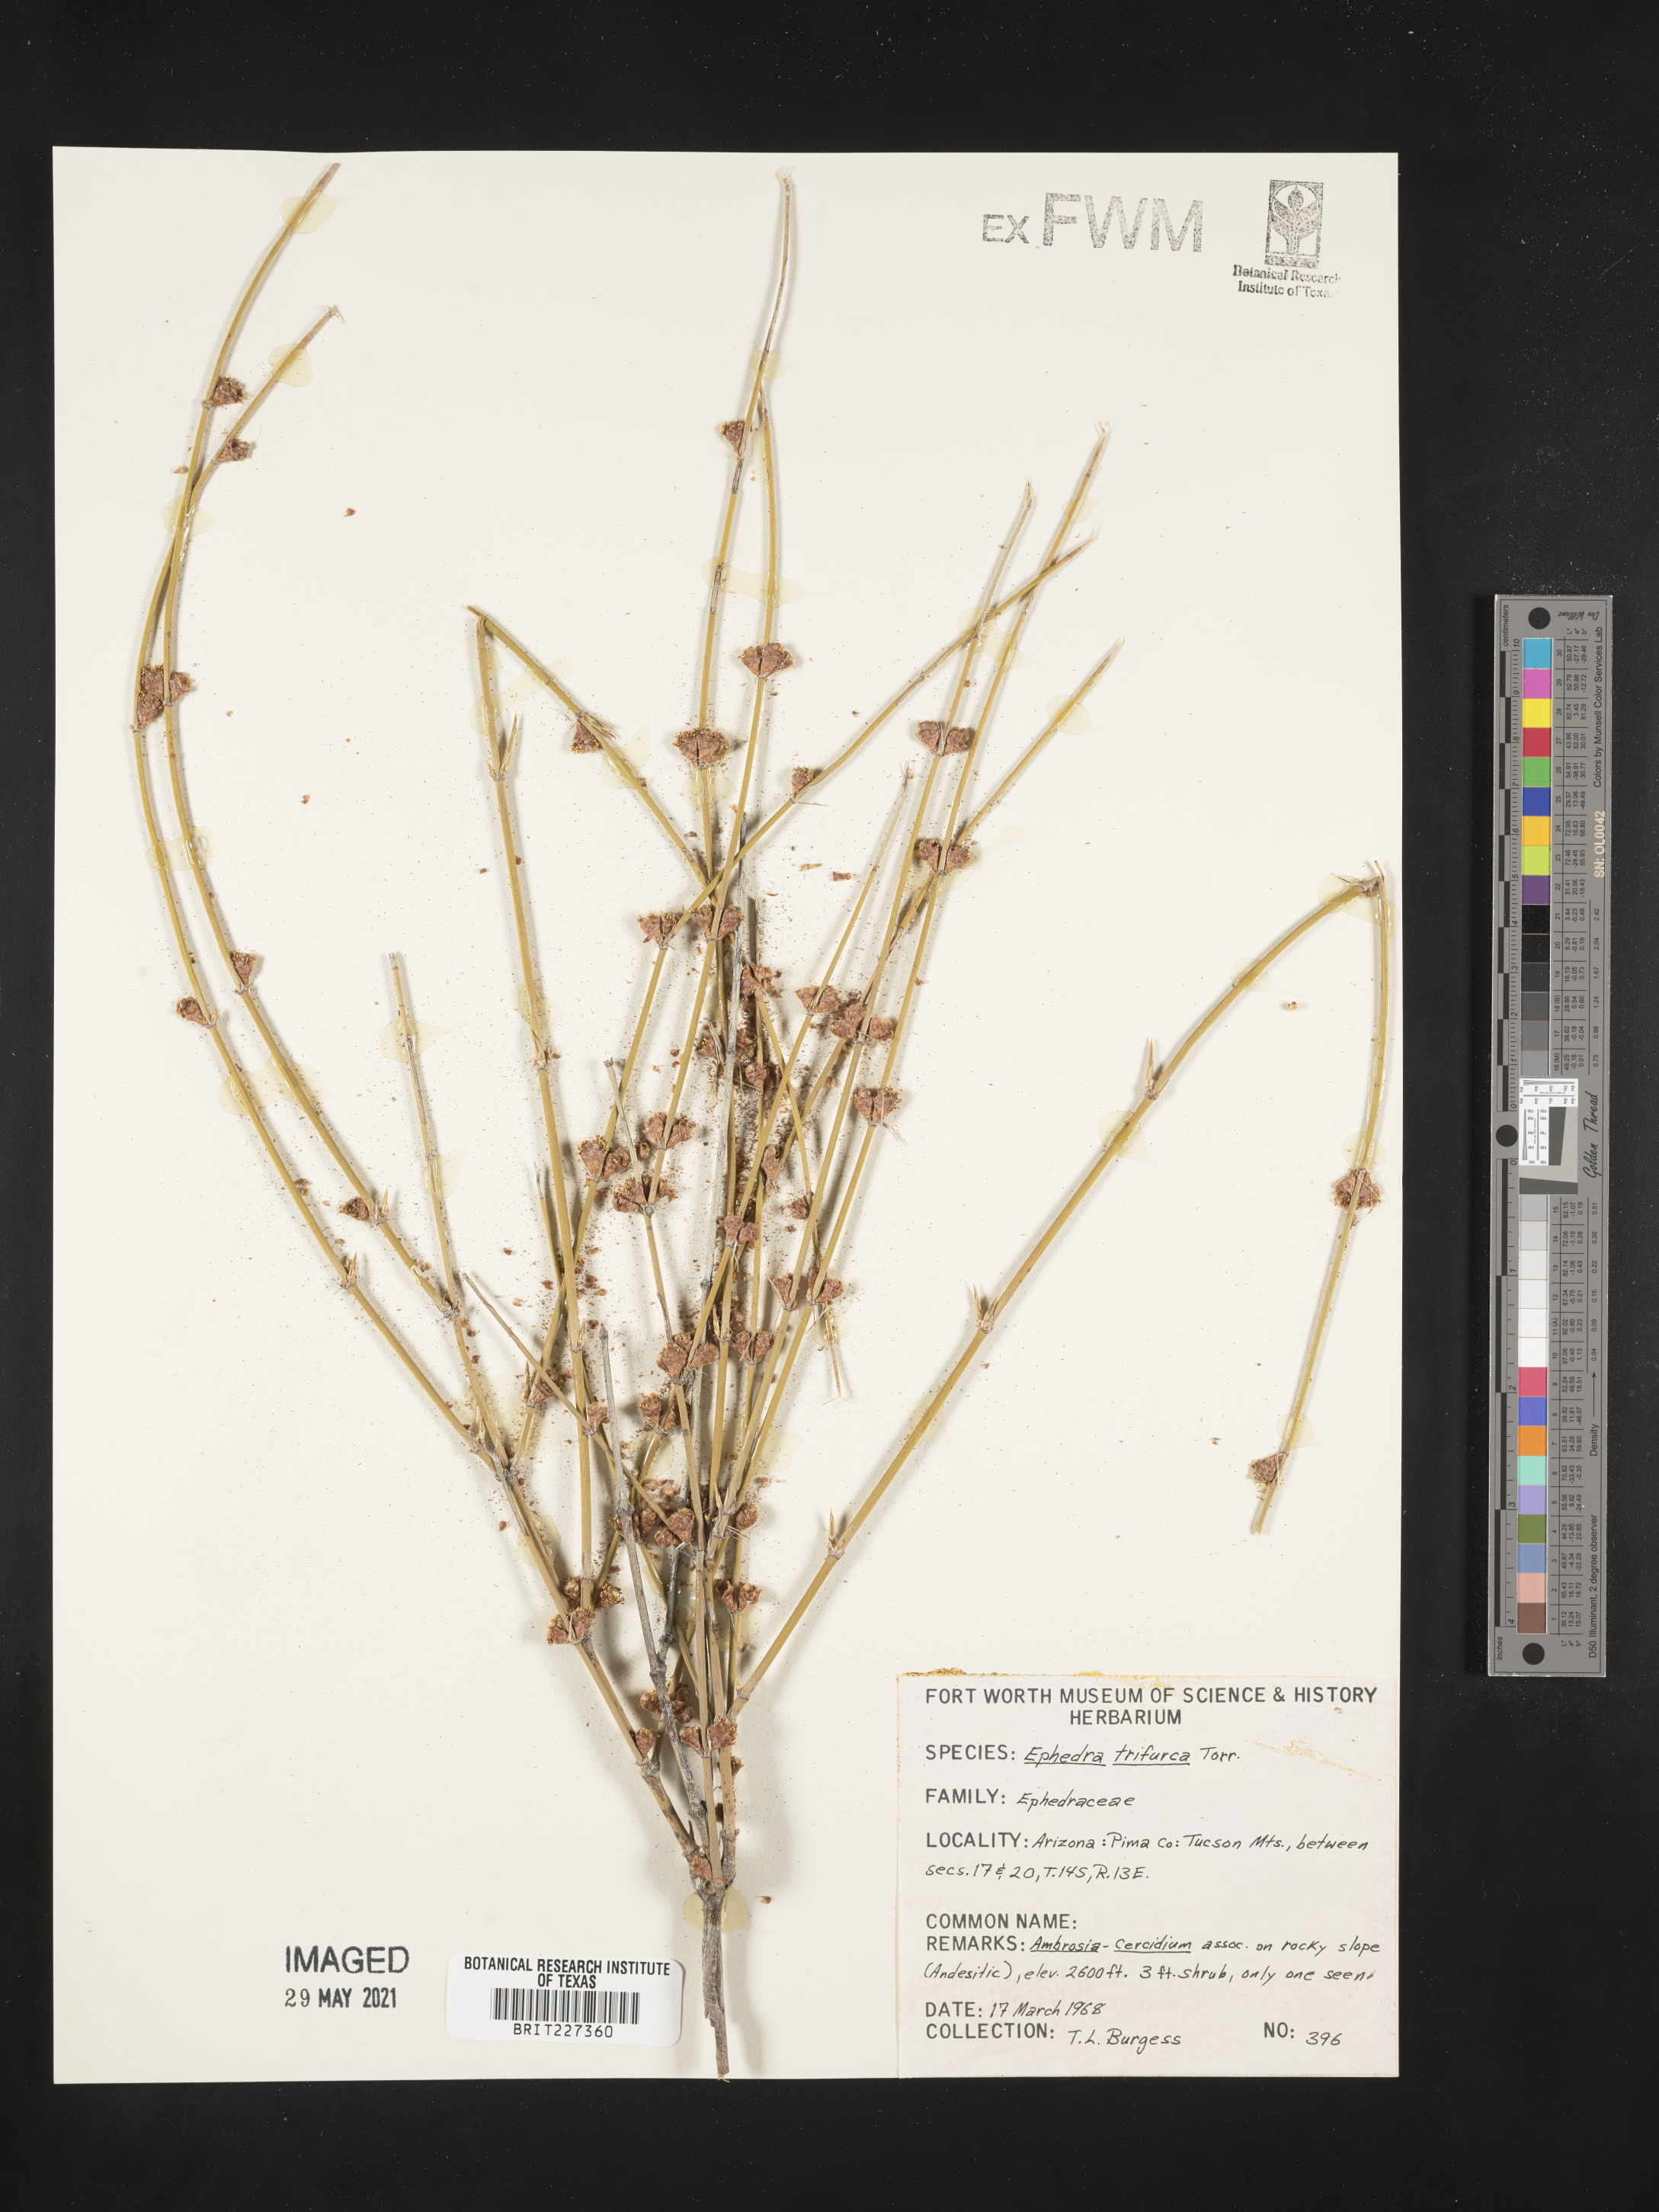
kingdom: Plantae
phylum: Tracheophyta
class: Gnetopsida
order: Ephedrales
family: Ephedraceae
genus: Ephedra
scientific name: Ephedra trifurca
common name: Mexican-tea
